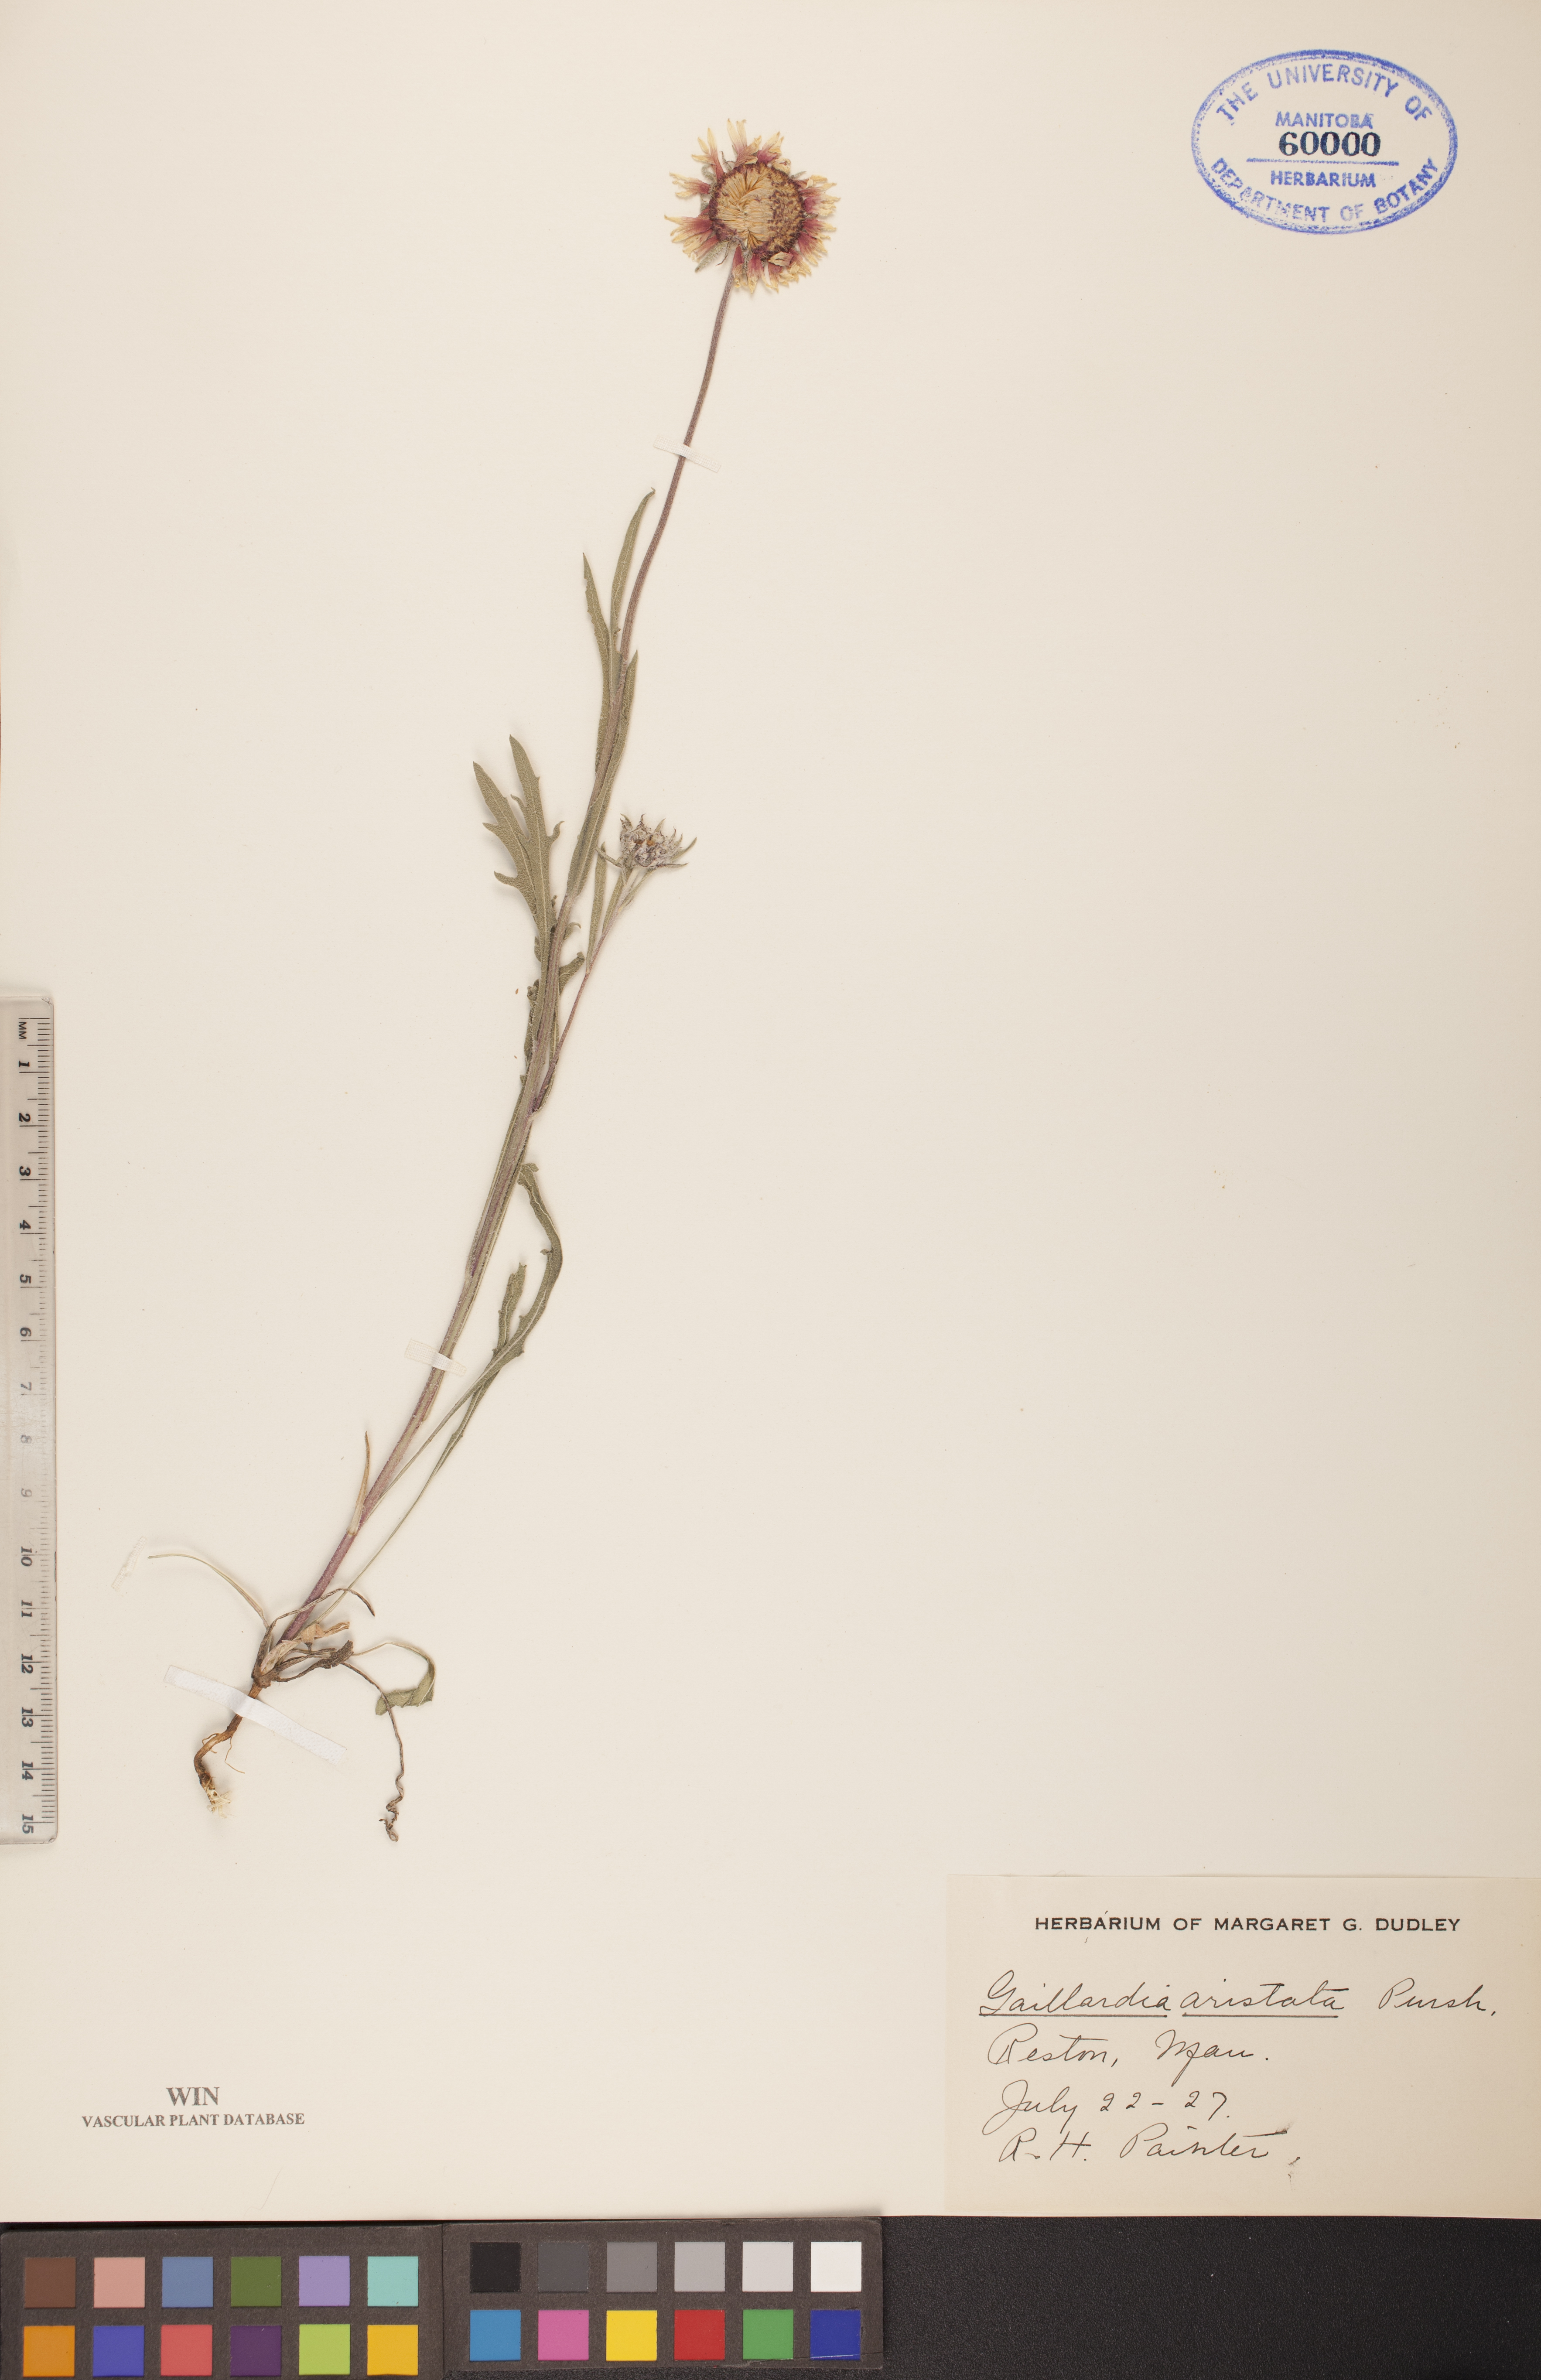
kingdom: Plantae
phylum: Tracheophyta
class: Magnoliopsida
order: Asterales
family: Asteraceae
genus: Gaillardia
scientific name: Gaillardia aristata
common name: Blanket-flower
